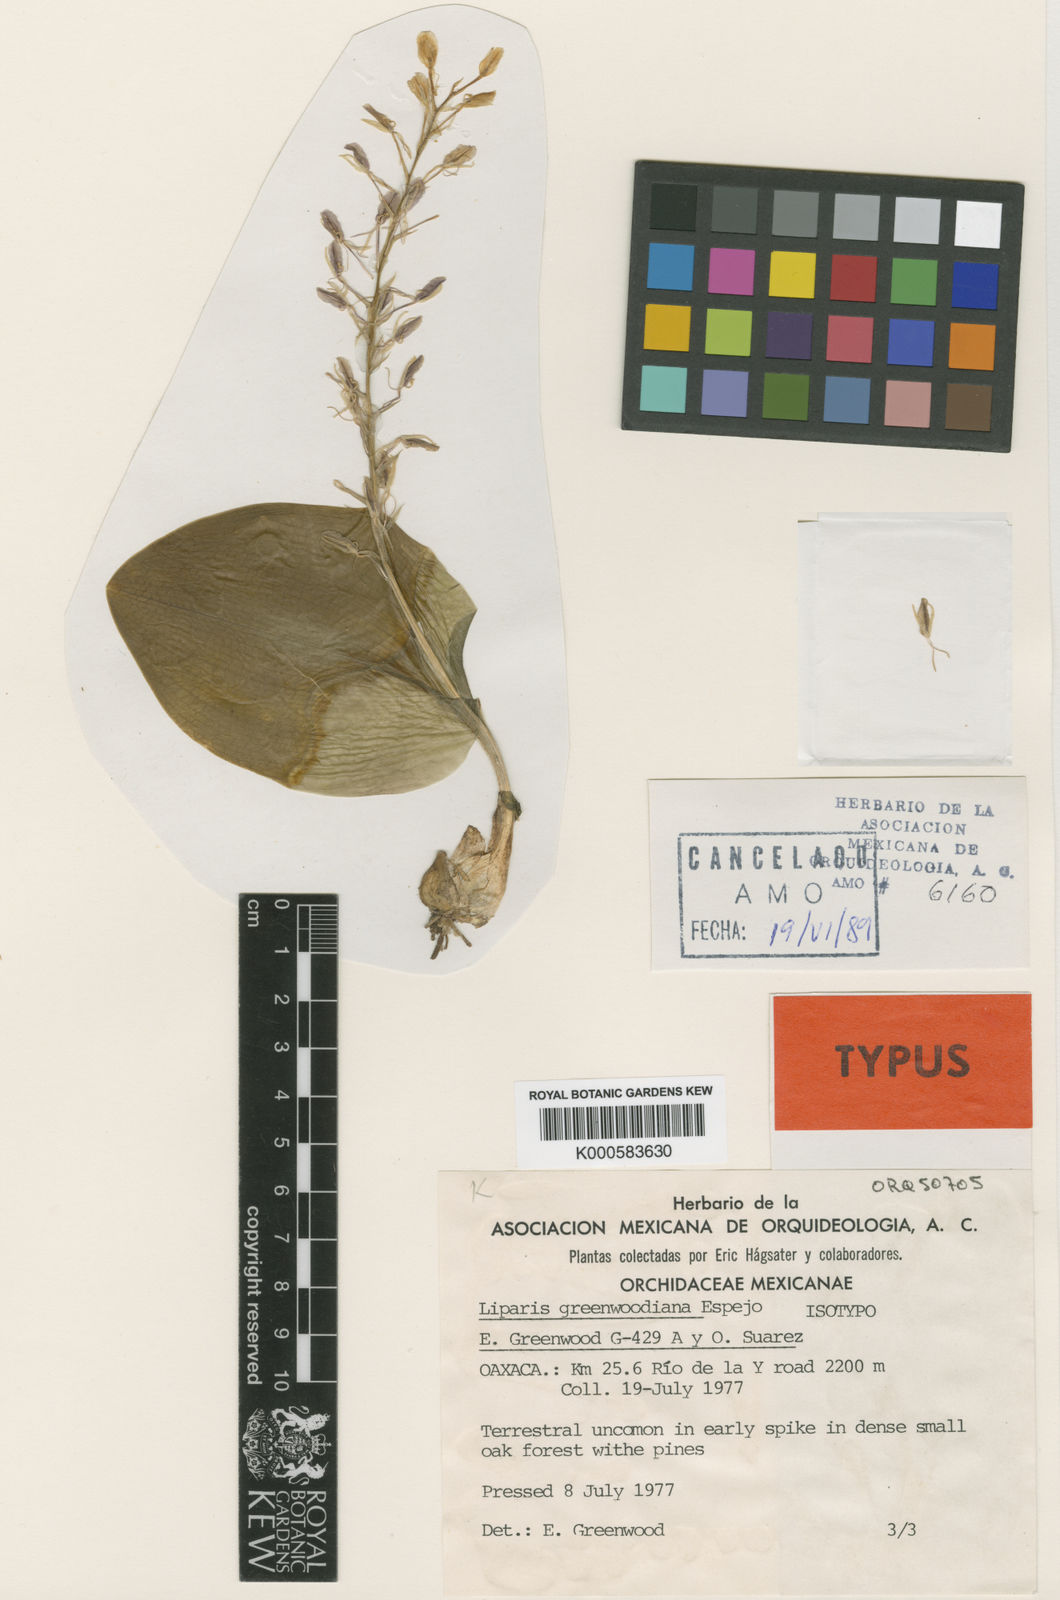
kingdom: Plantae
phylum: Tracheophyta
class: Liliopsida
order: Asparagales
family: Orchidaceae
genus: Liparis
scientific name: Liparis greenwoodiana
